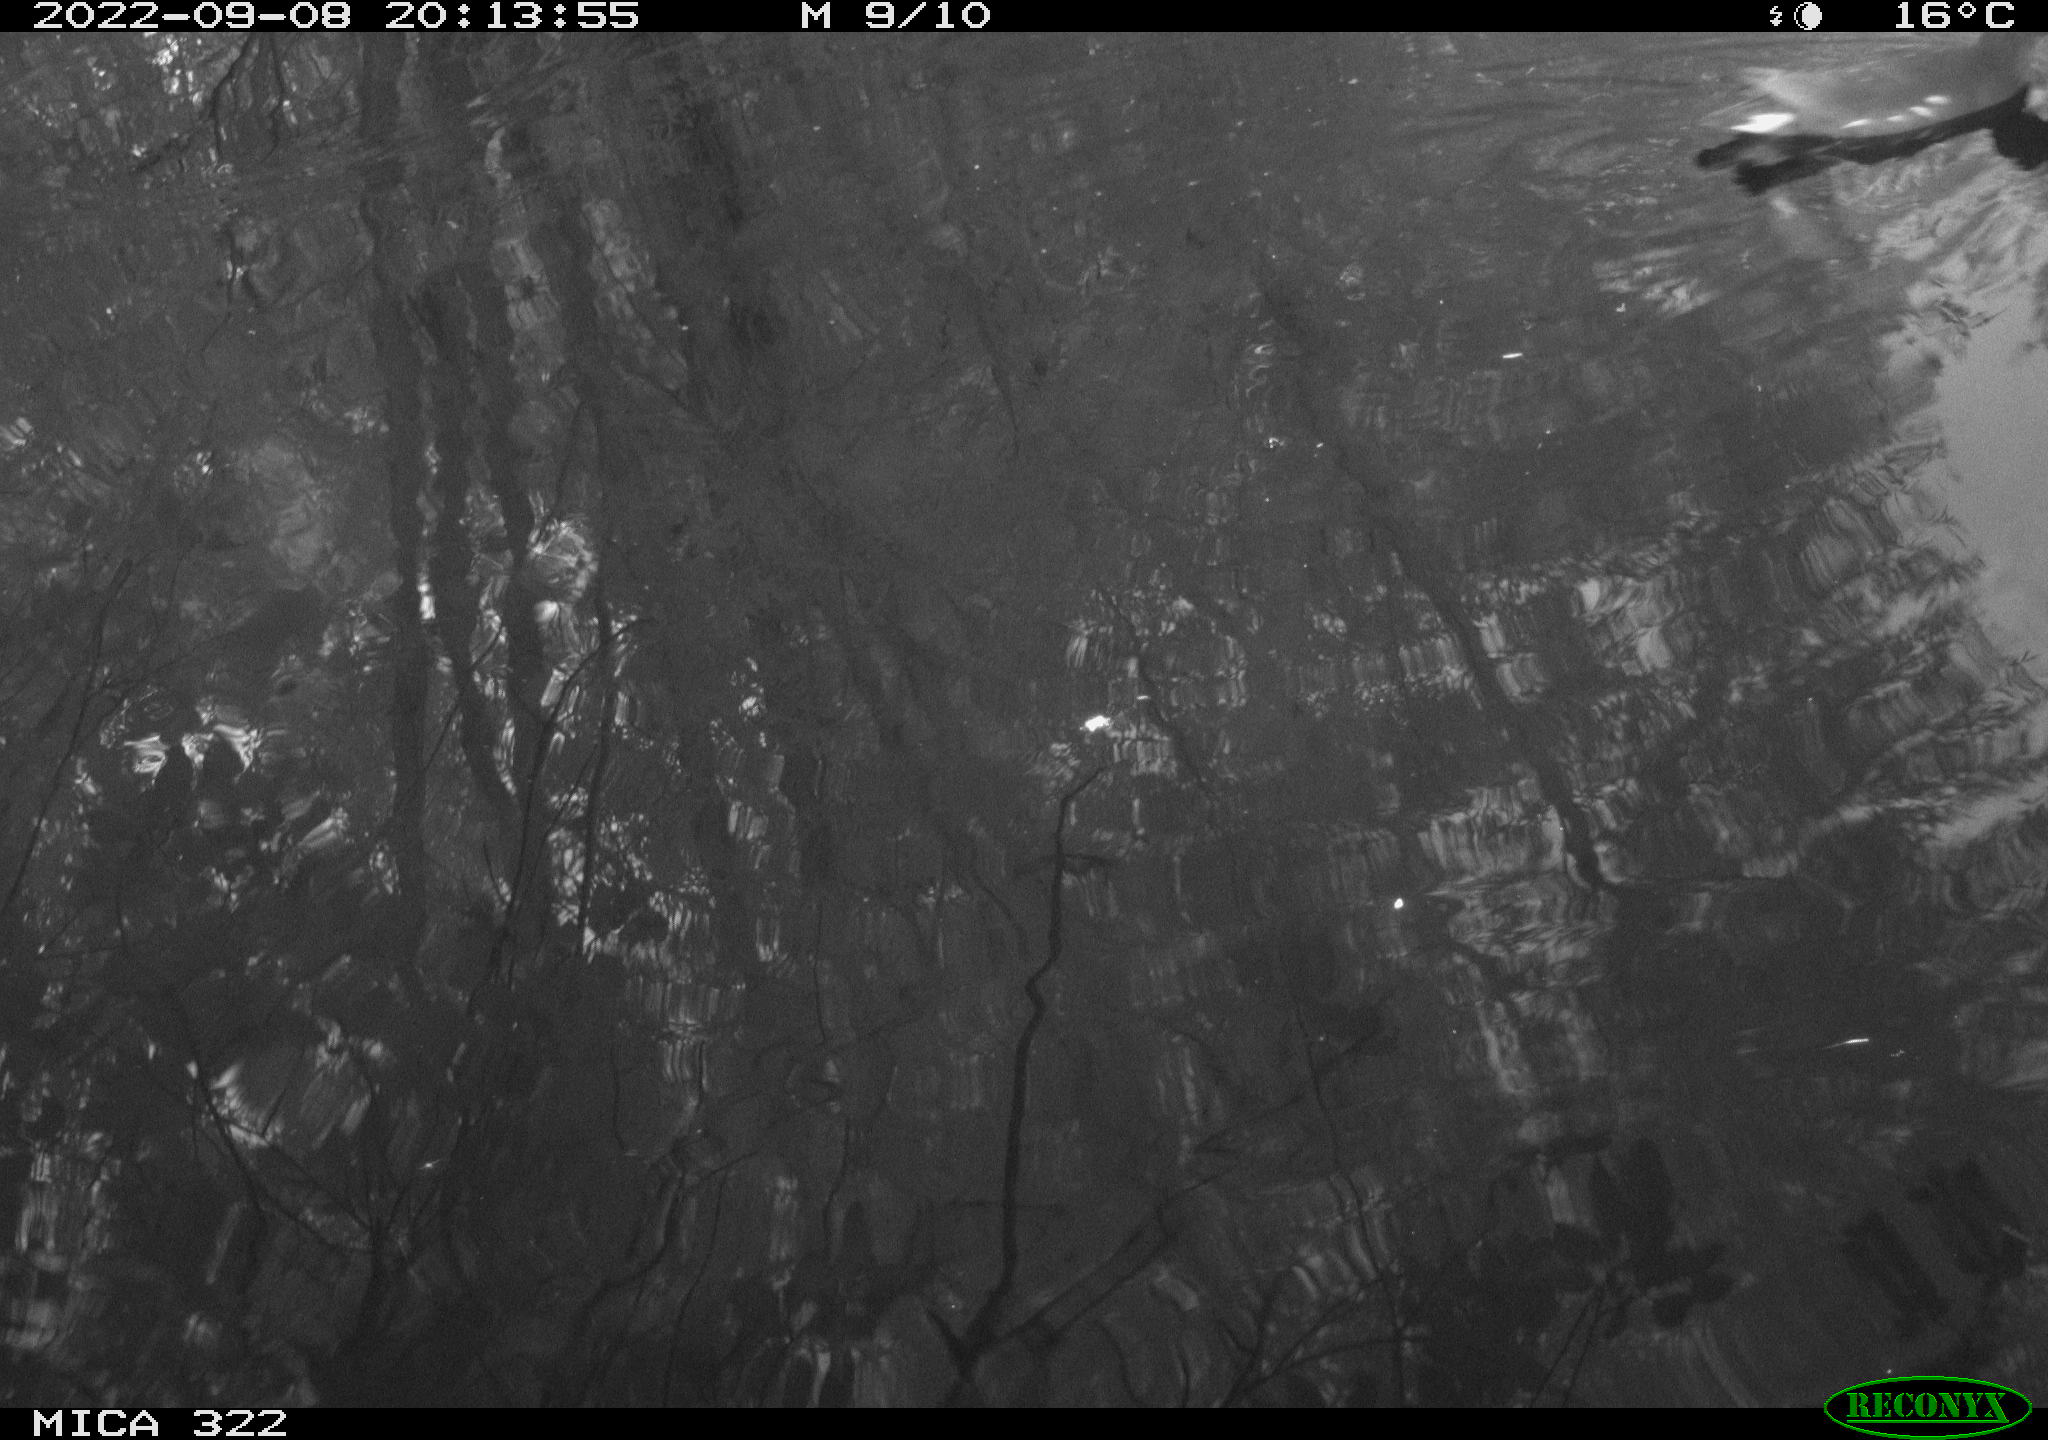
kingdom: Animalia
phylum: Chordata
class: Aves
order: Gruiformes
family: Rallidae
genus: Gallinula
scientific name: Gallinula chloropus
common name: Common moorhen
